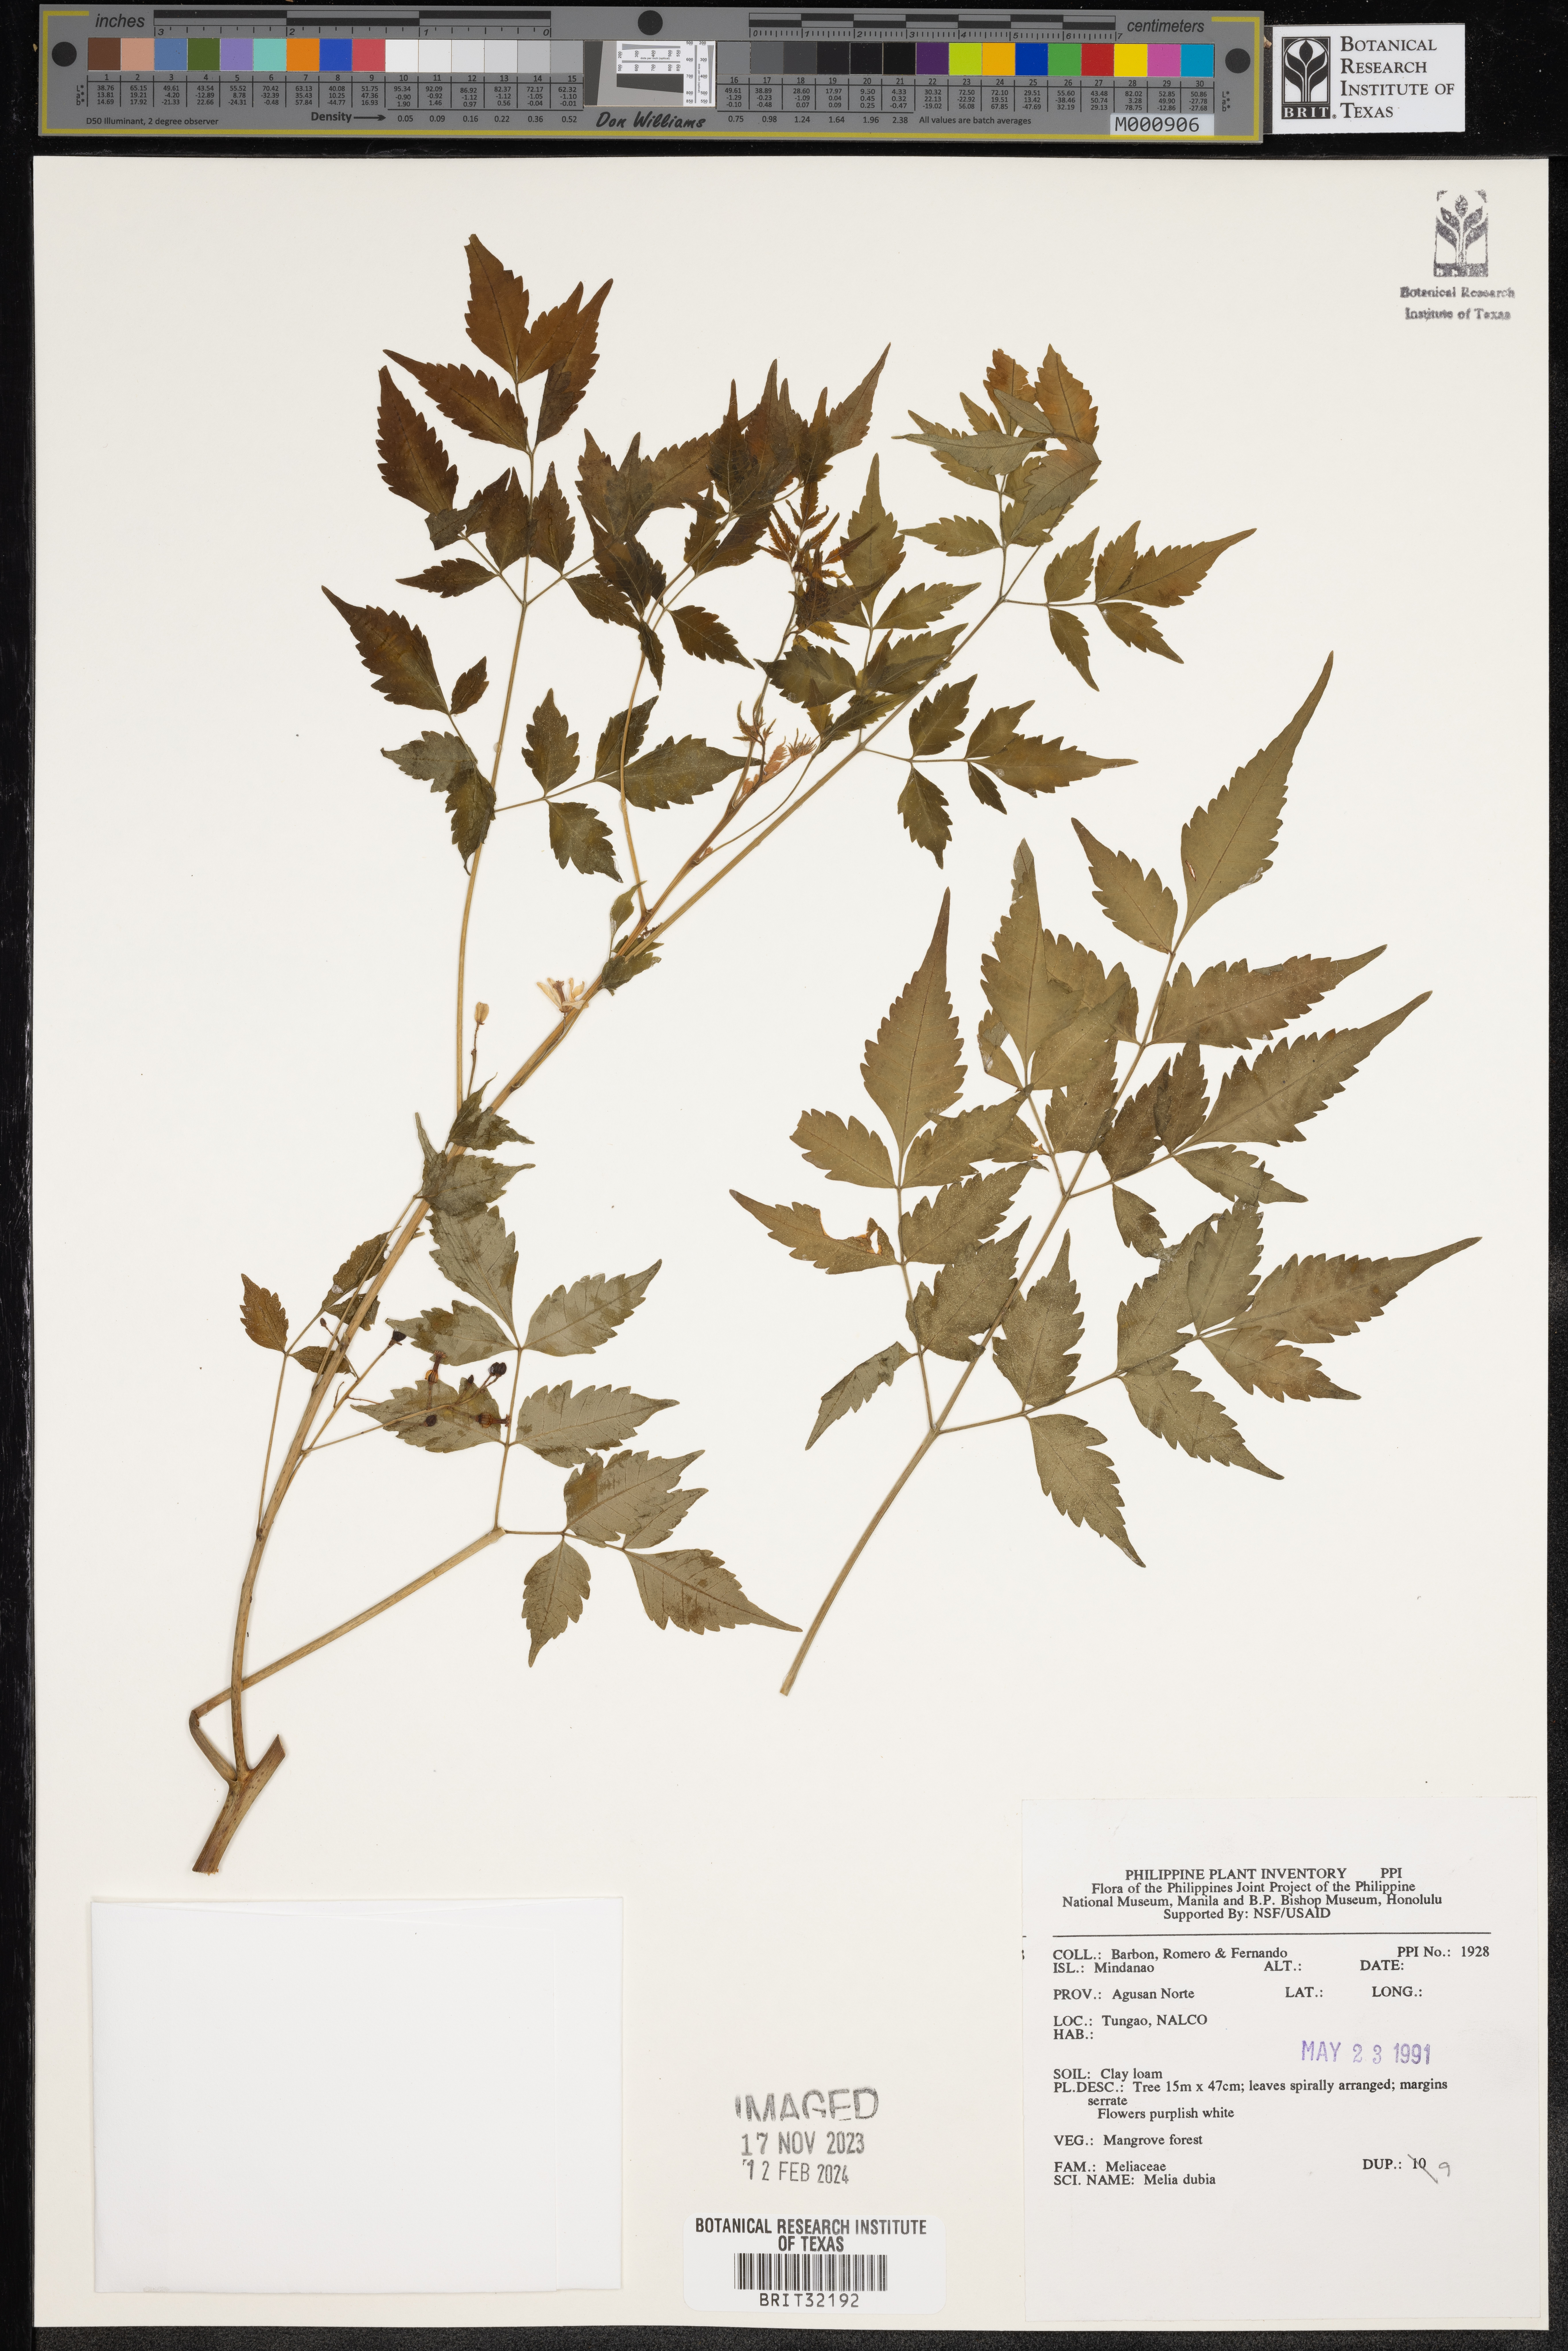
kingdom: Plantae
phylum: Tracheophyta
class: Magnoliopsida
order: Sapindales
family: Meliaceae
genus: Melia
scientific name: Melia azedarach
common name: Chinaberrytree
